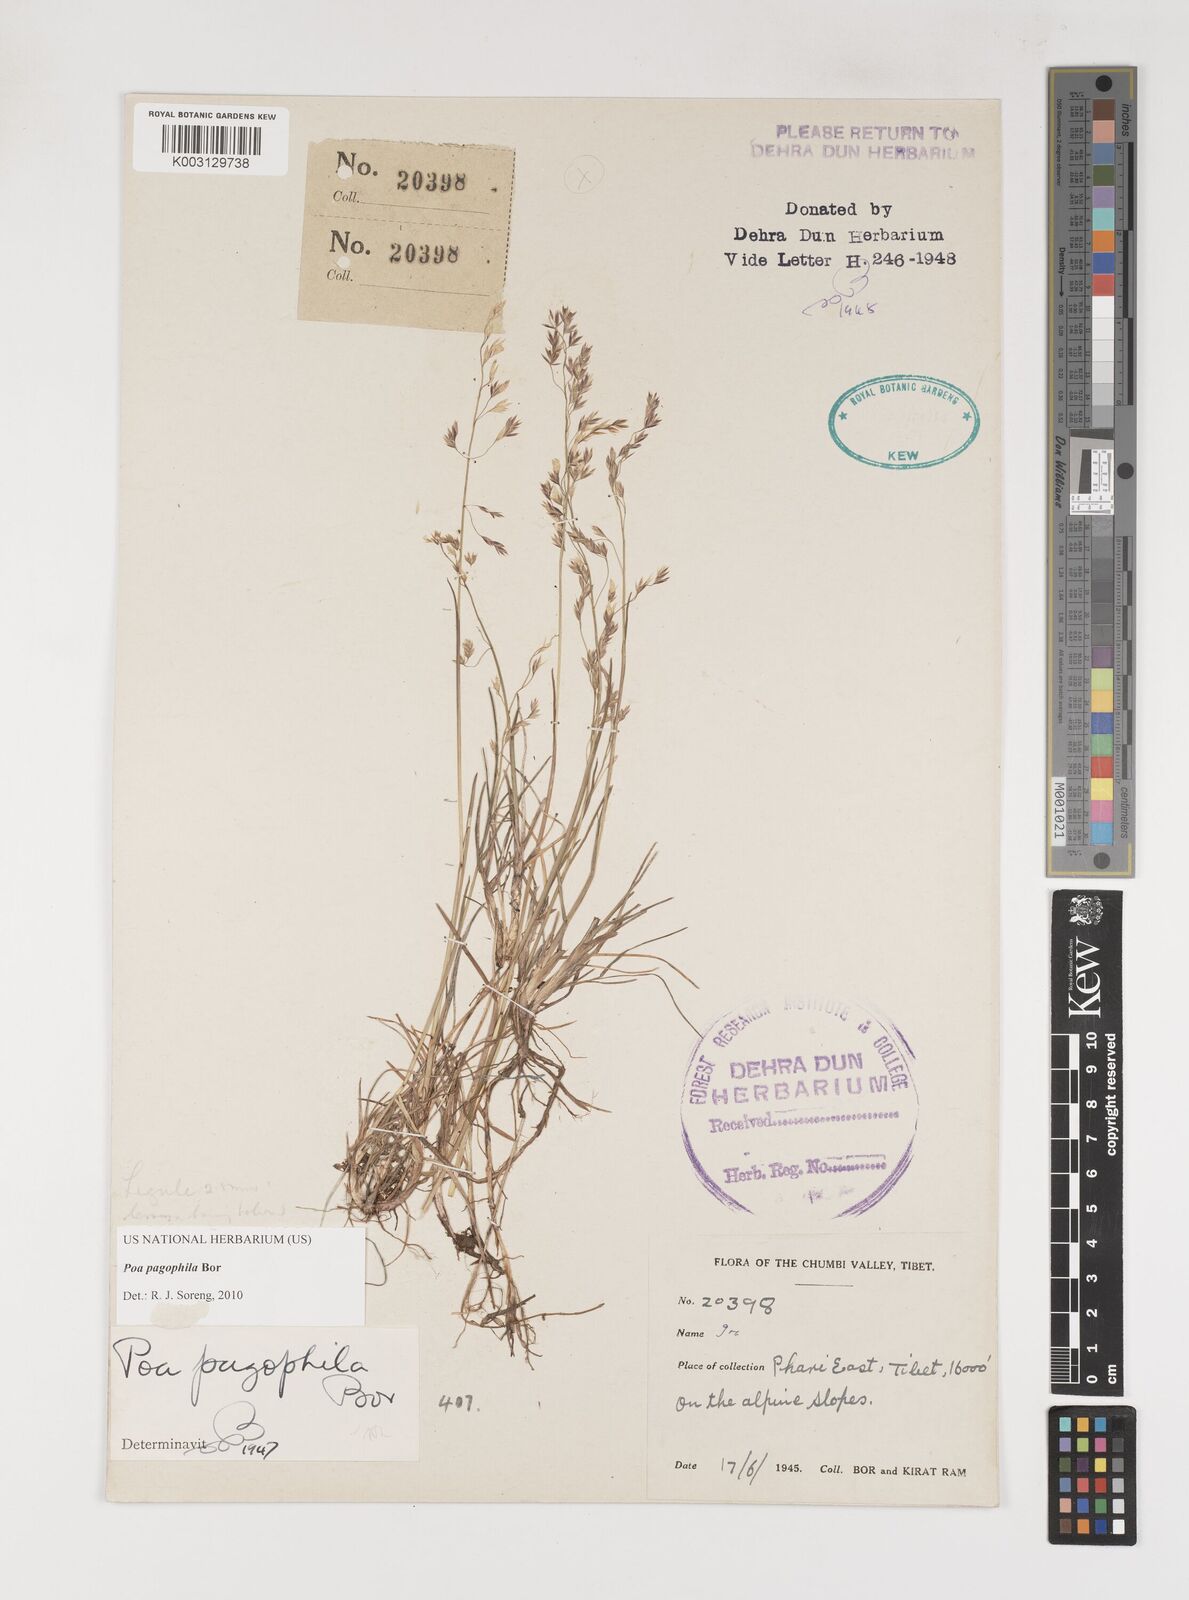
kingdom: Plantae
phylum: Tracheophyta
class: Liliopsida
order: Poales
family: Poaceae
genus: Poa
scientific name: Poa pagophila
